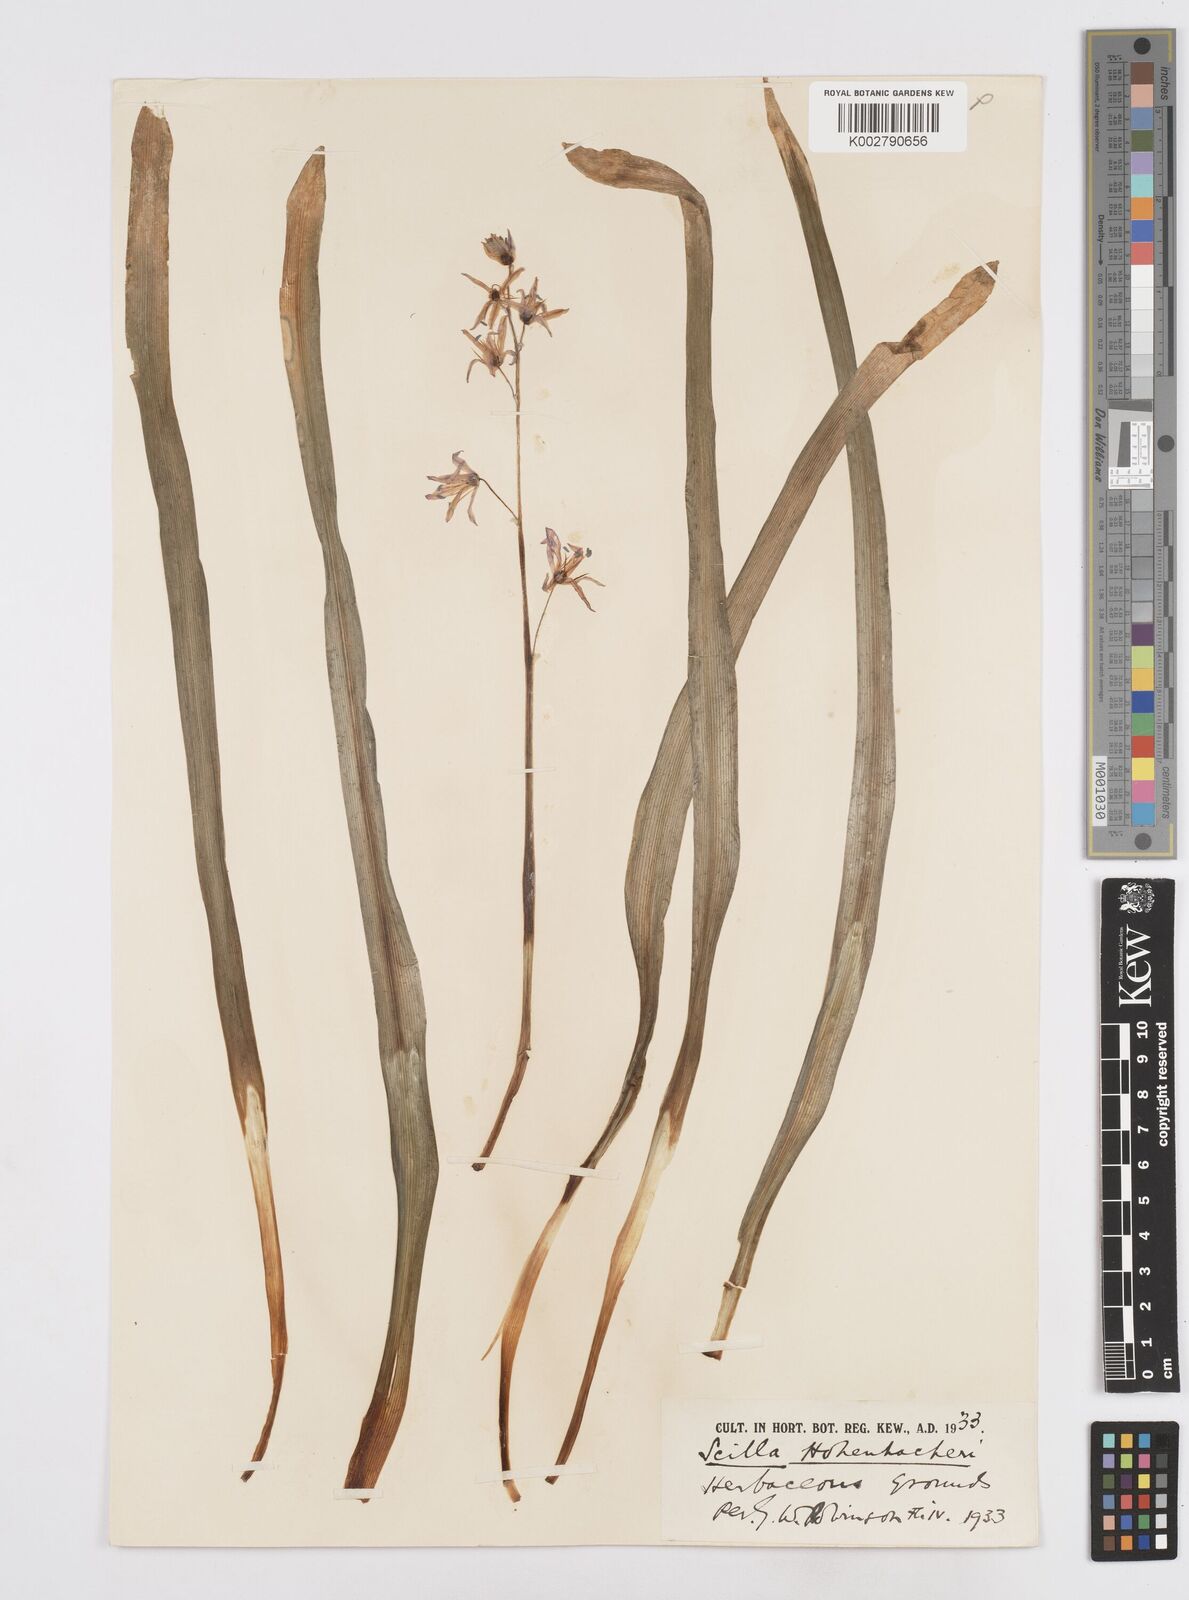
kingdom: Plantae
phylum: Tracheophyta
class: Liliopsida
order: Asparagales
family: Asparagaceae
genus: Scilla
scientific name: Scilla cilicica
